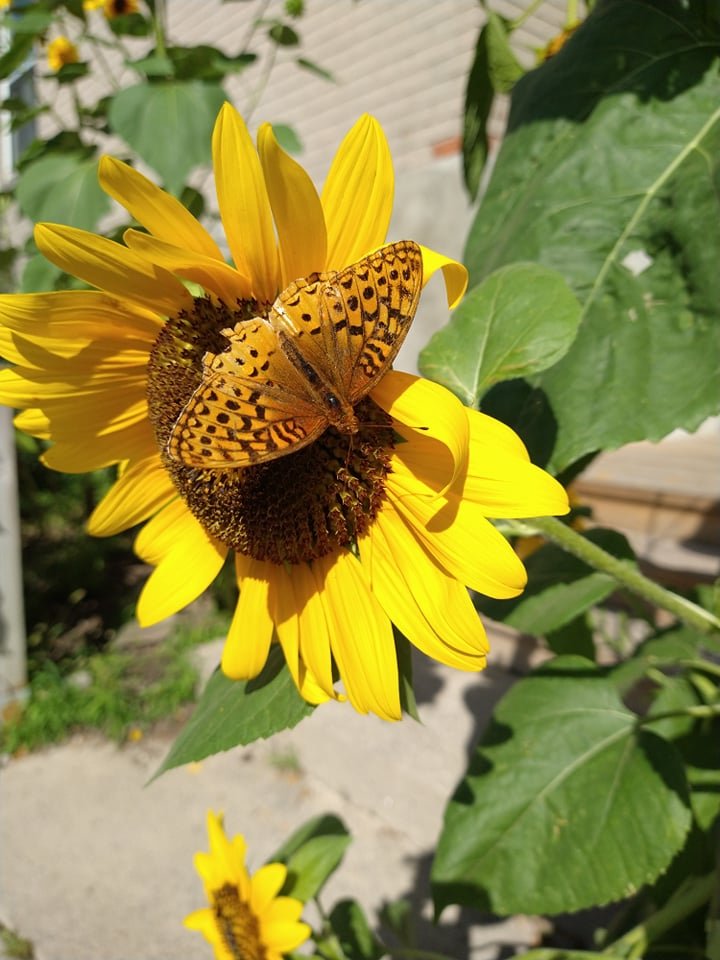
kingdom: Animalia
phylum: Arthropoda
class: Insecta
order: Lepidoptera
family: Nymphalidae
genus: Speyeria
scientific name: Speyeria cybele
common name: Great Spangled Fritillary
